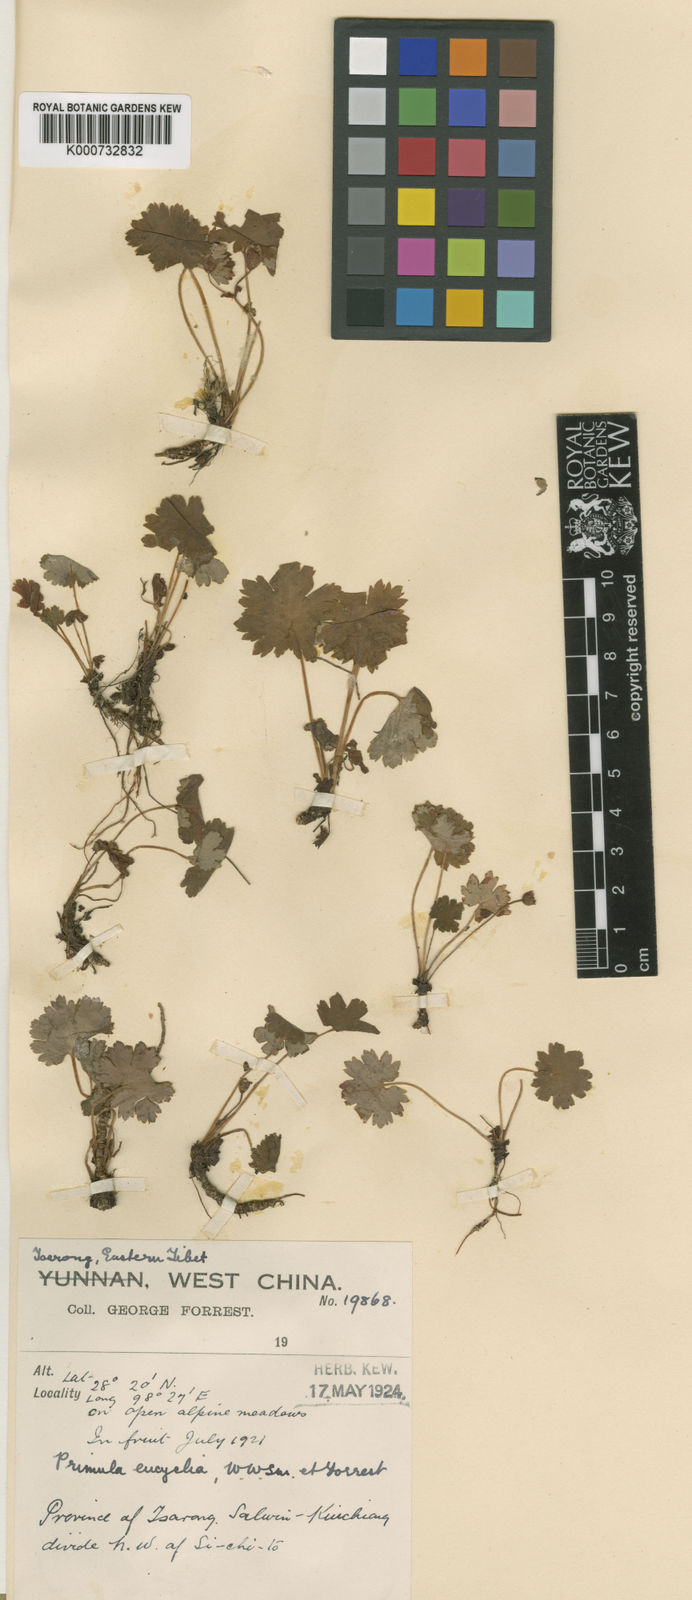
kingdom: Plantae
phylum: Tracheophyta
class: Magnoliopsida
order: Ericales
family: Primulaceae
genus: Primula
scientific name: Primula vaginata
